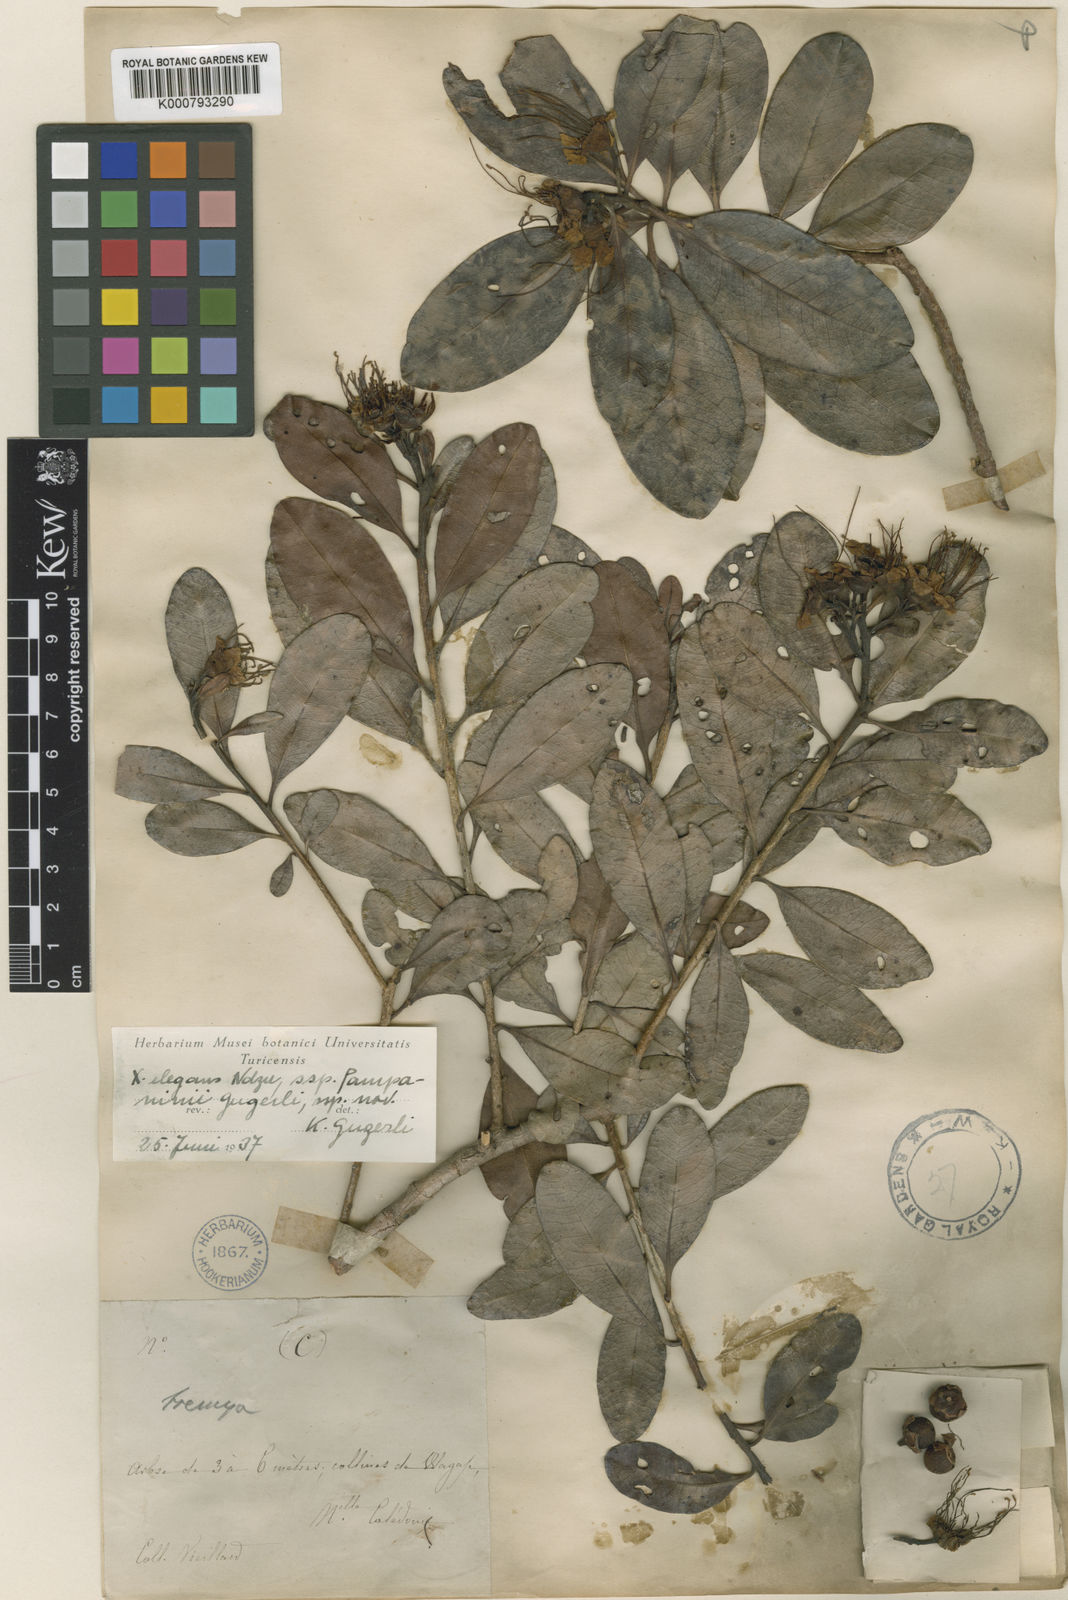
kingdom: Plantae
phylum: Tracheophyta
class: Magnoliopsida
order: Myrtales
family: Myrtaceae
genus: Xanthostemon
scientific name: Xanthostemon multiflorus
